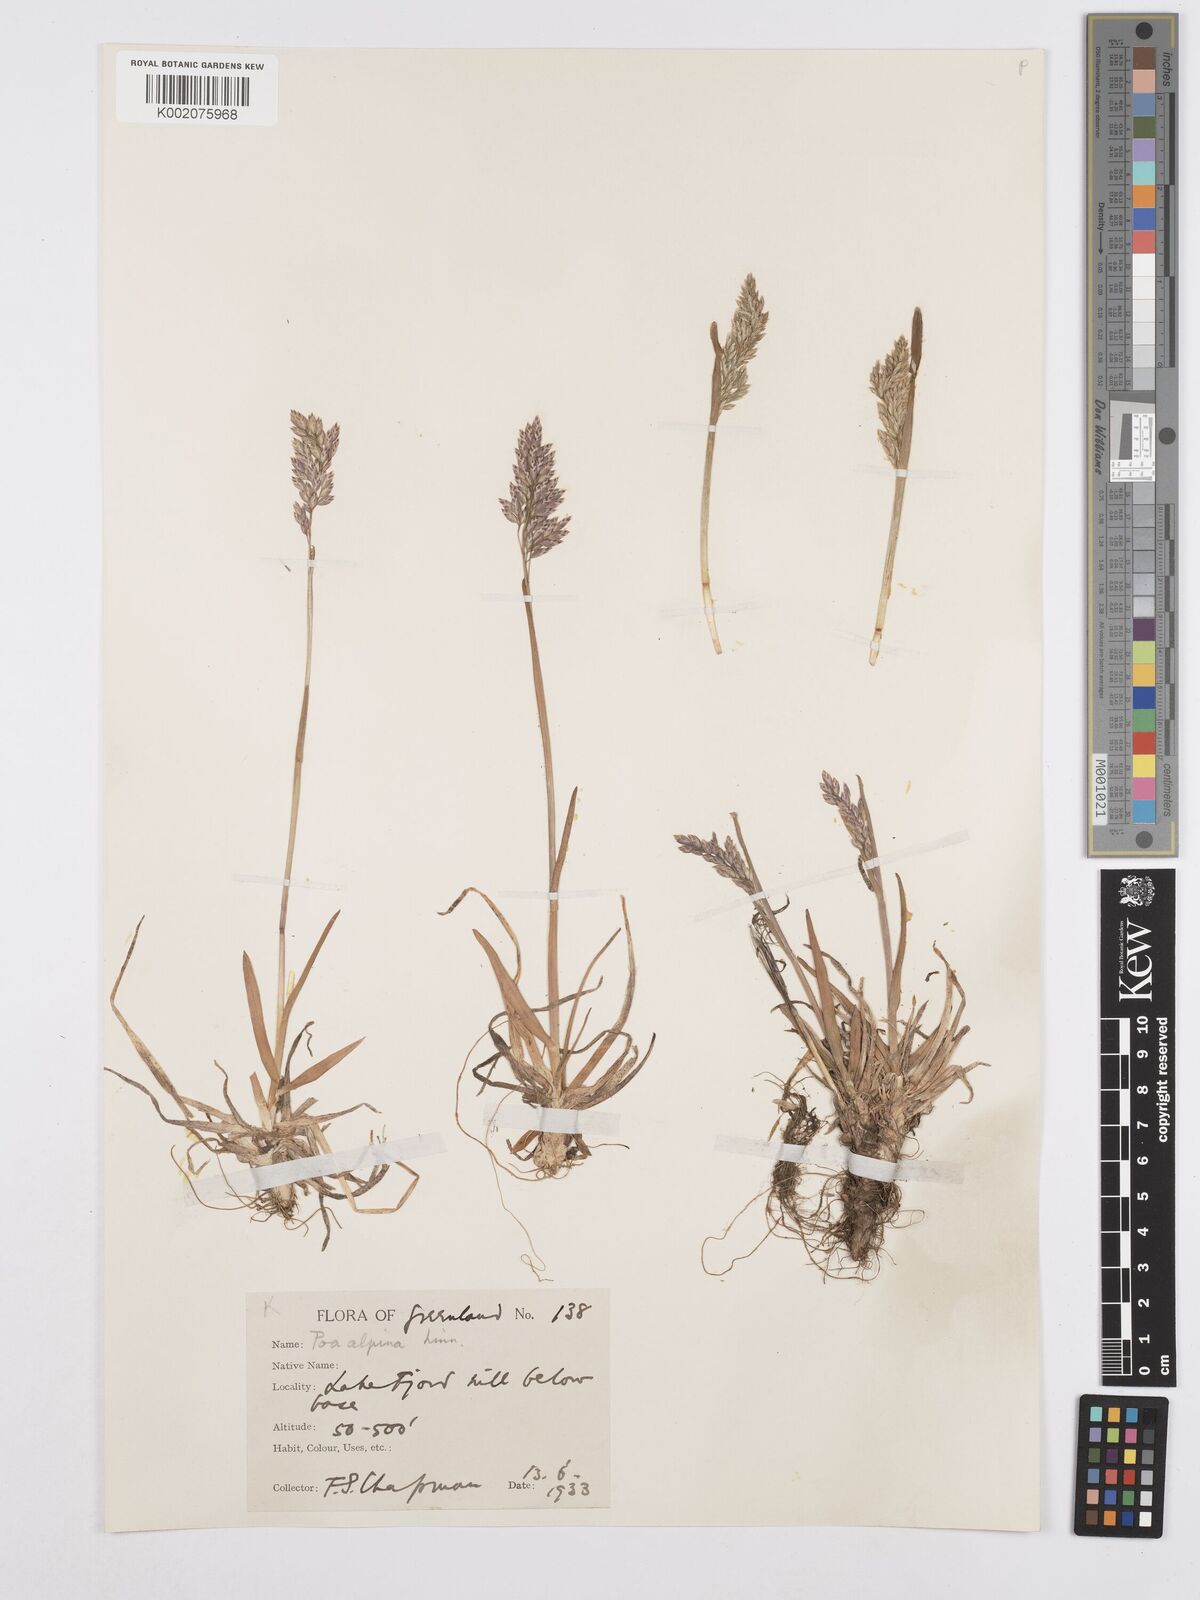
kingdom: Plantae
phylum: Tracheophyta
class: Liliopsida
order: Poales
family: Poaceae
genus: Poa
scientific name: Poa alpina
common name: Alpine bluegrass
